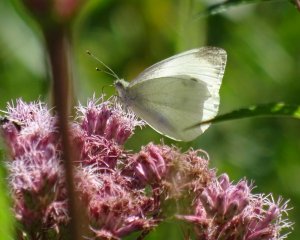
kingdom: Animalia
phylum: Arthropoda
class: Insecta
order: Lepidoptera
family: Pieridae
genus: Pieris
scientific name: Pieris rapae
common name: Cabbage White
